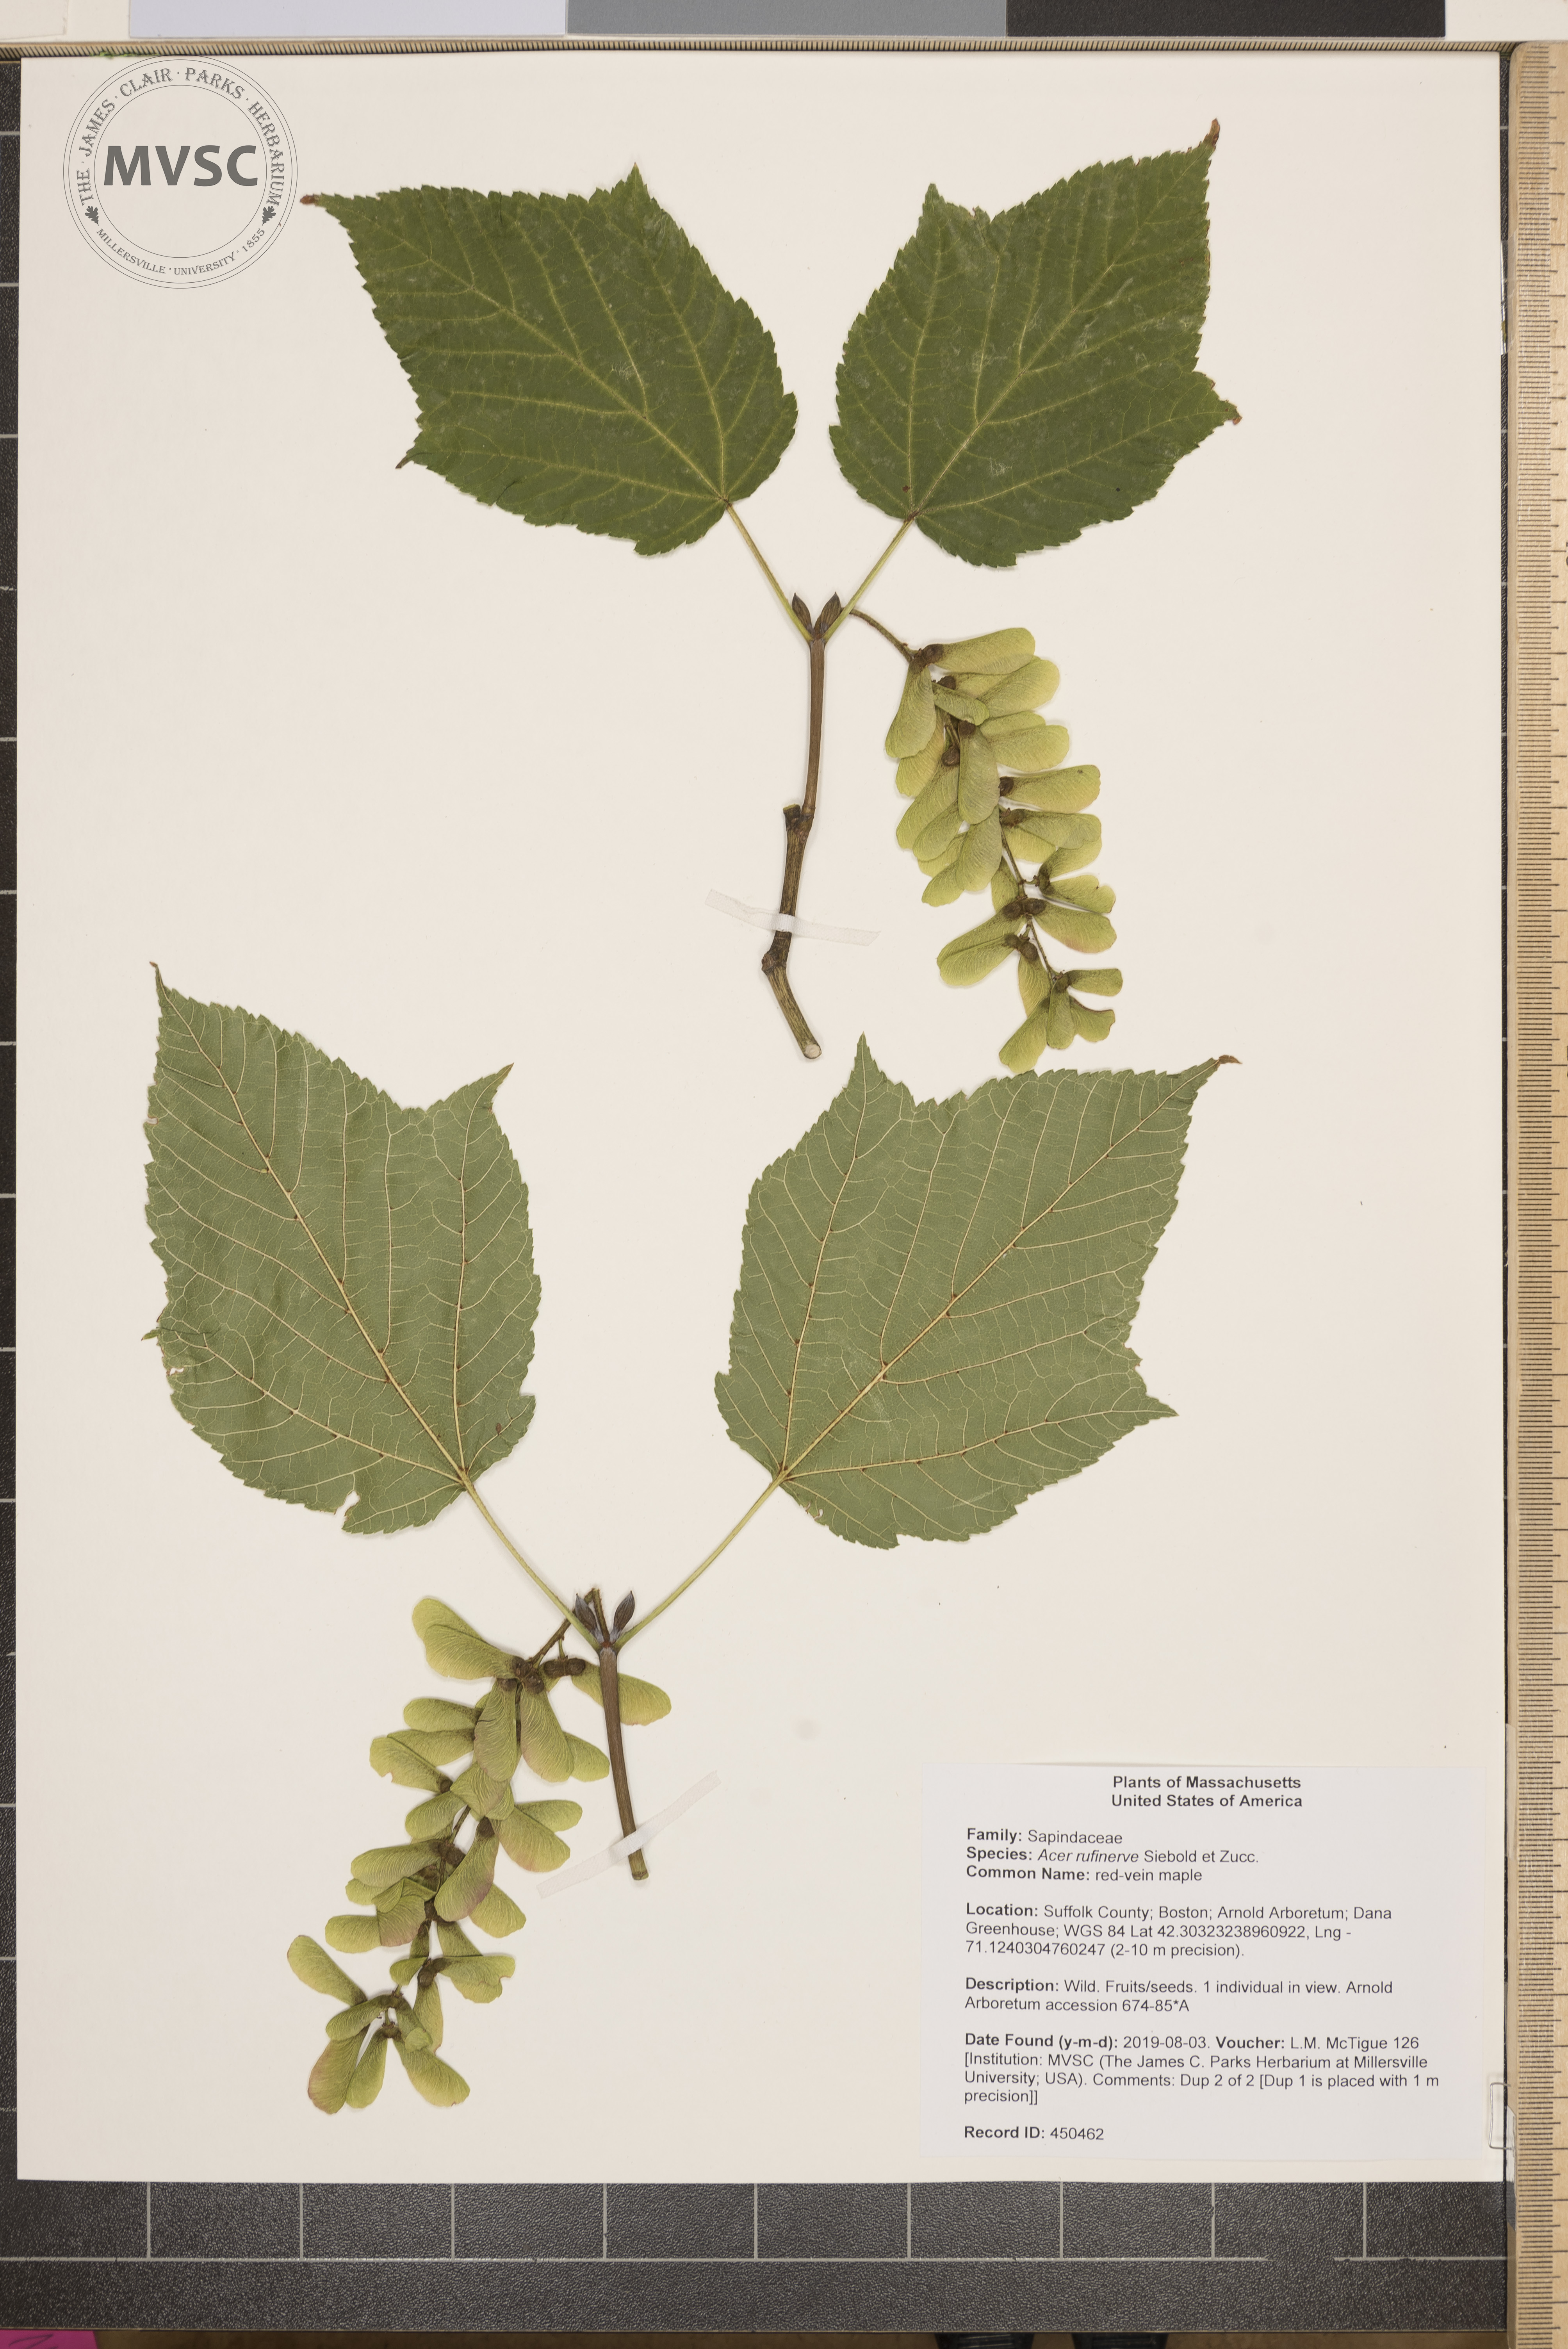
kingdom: Plantae
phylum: Tracheophyta
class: Magnoliopsida
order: Sapindales
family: Sapindaceae
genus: Acer
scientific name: Acer rufinerve
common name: red-vein maple
